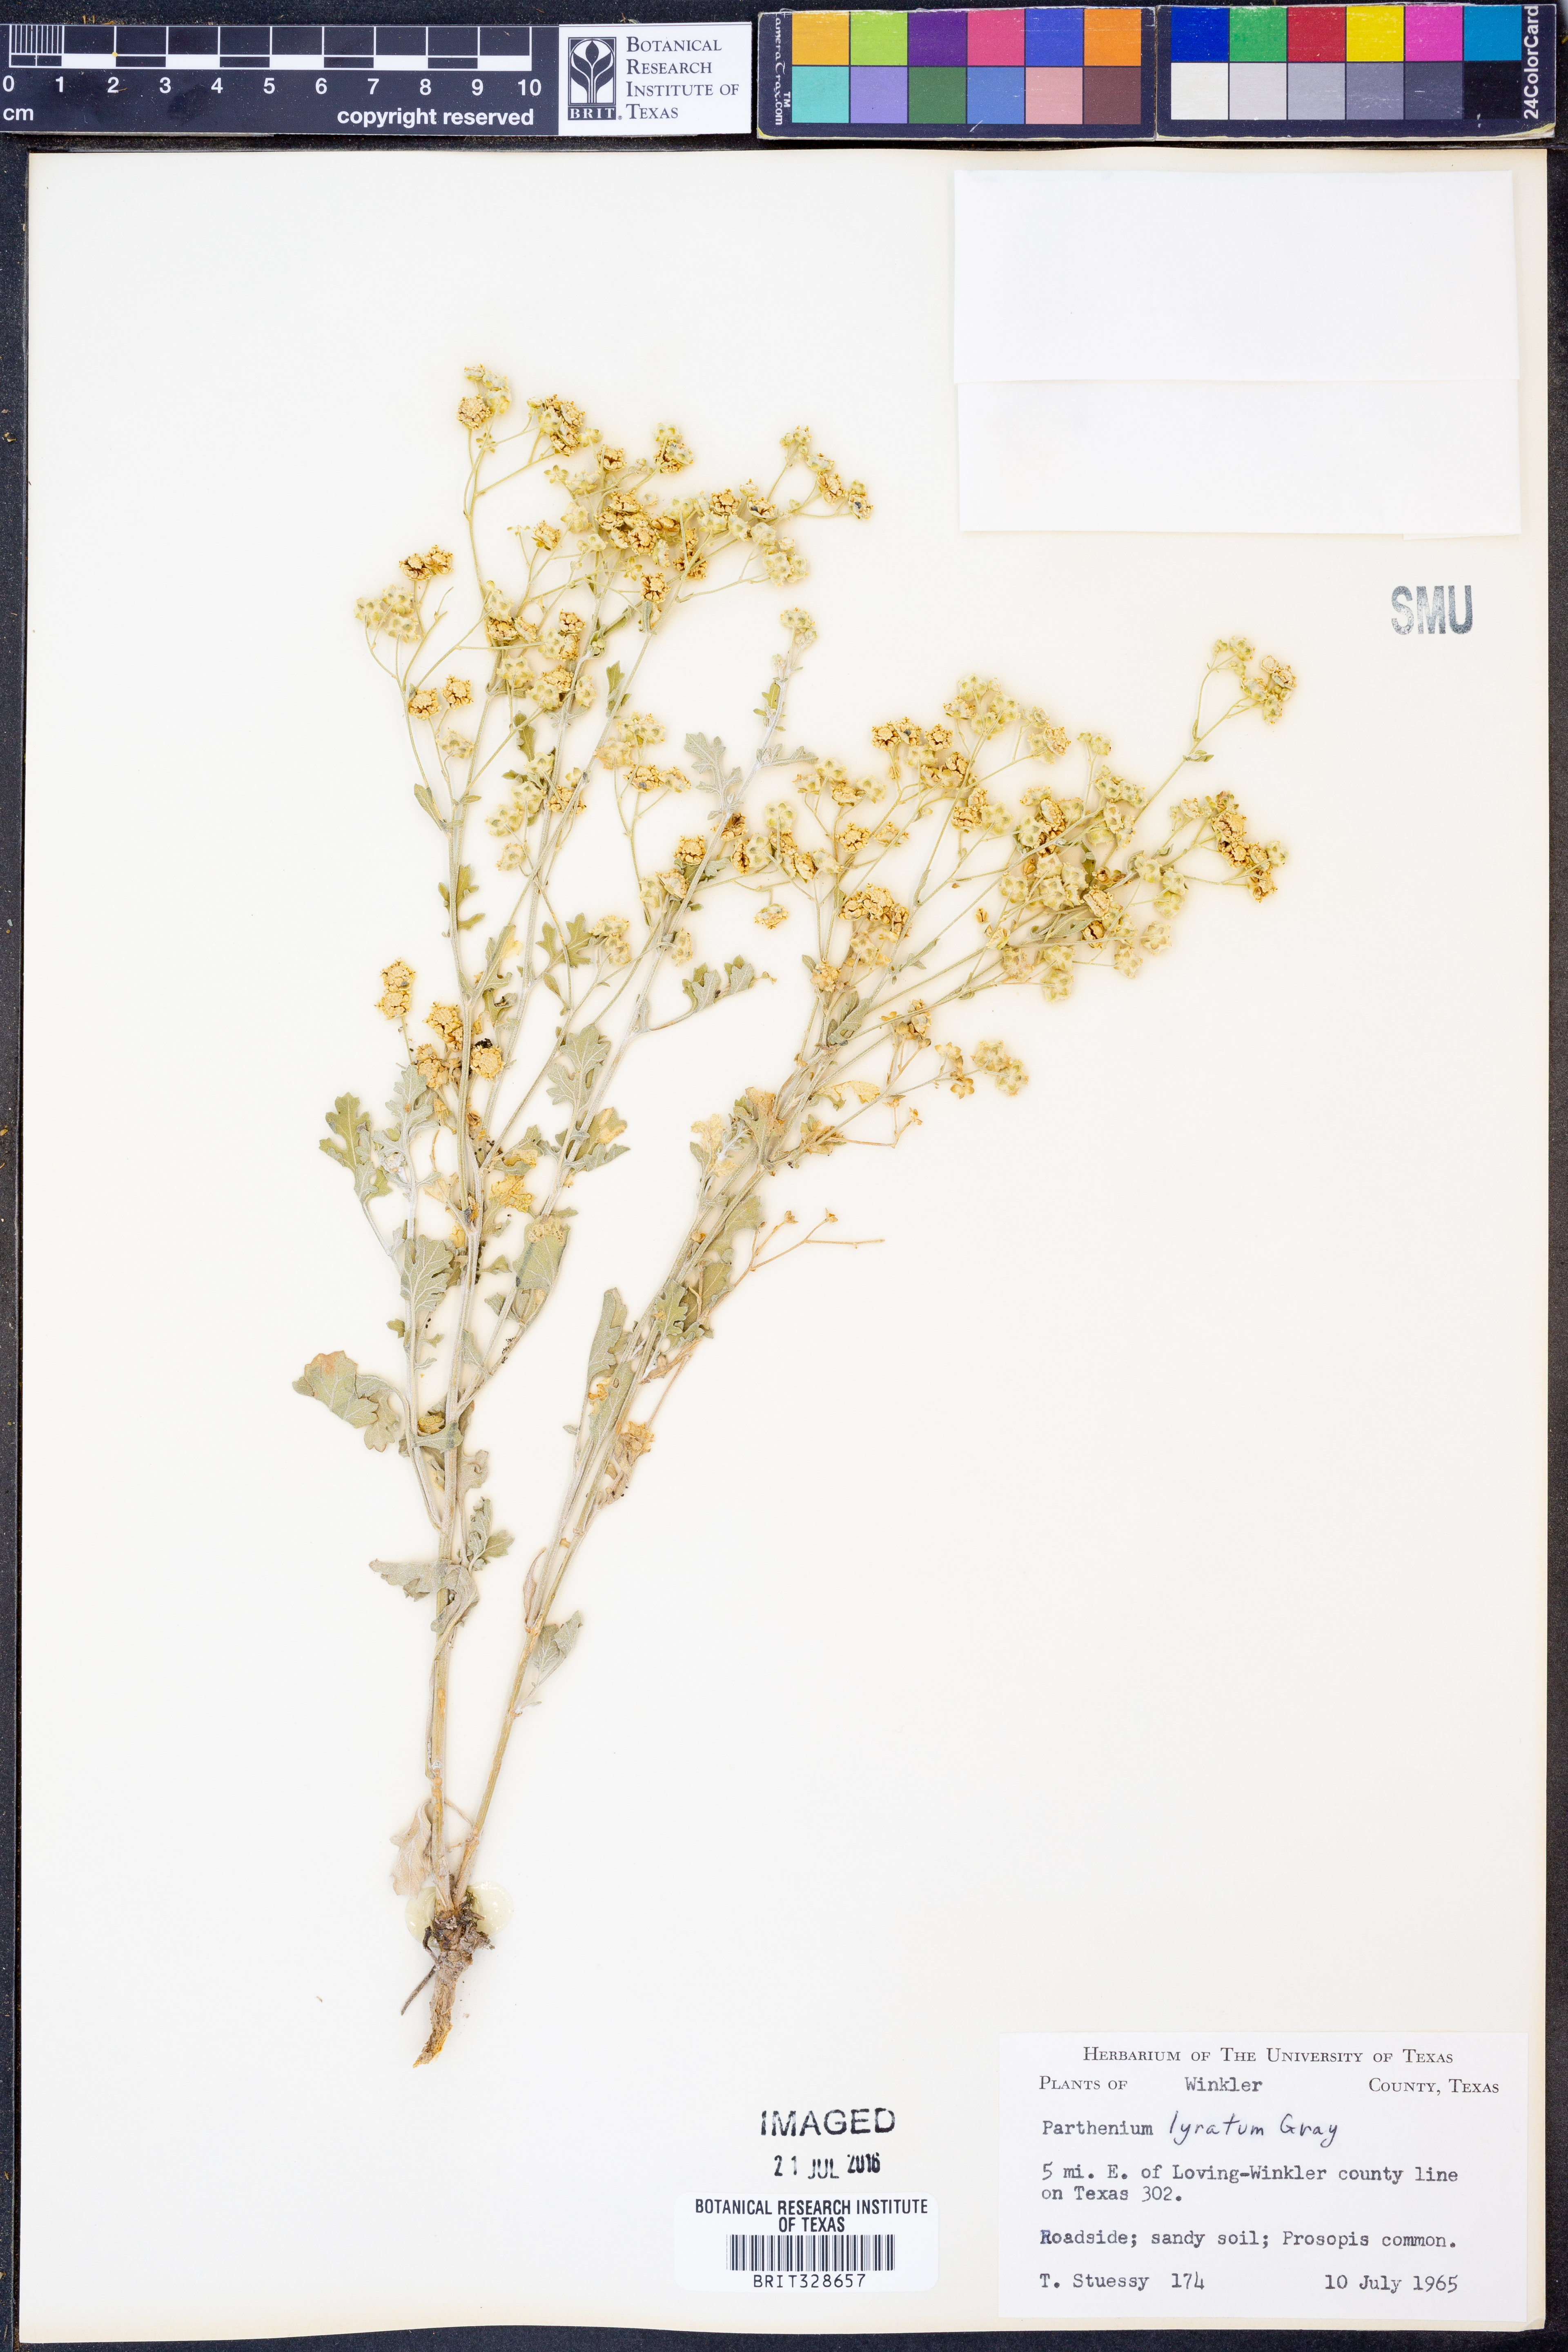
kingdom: Plantae
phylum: Tracheophyta
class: Magnoliopsida
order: Asterales
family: Asteraceae
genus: Parthenium
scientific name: Parthenium confertum
